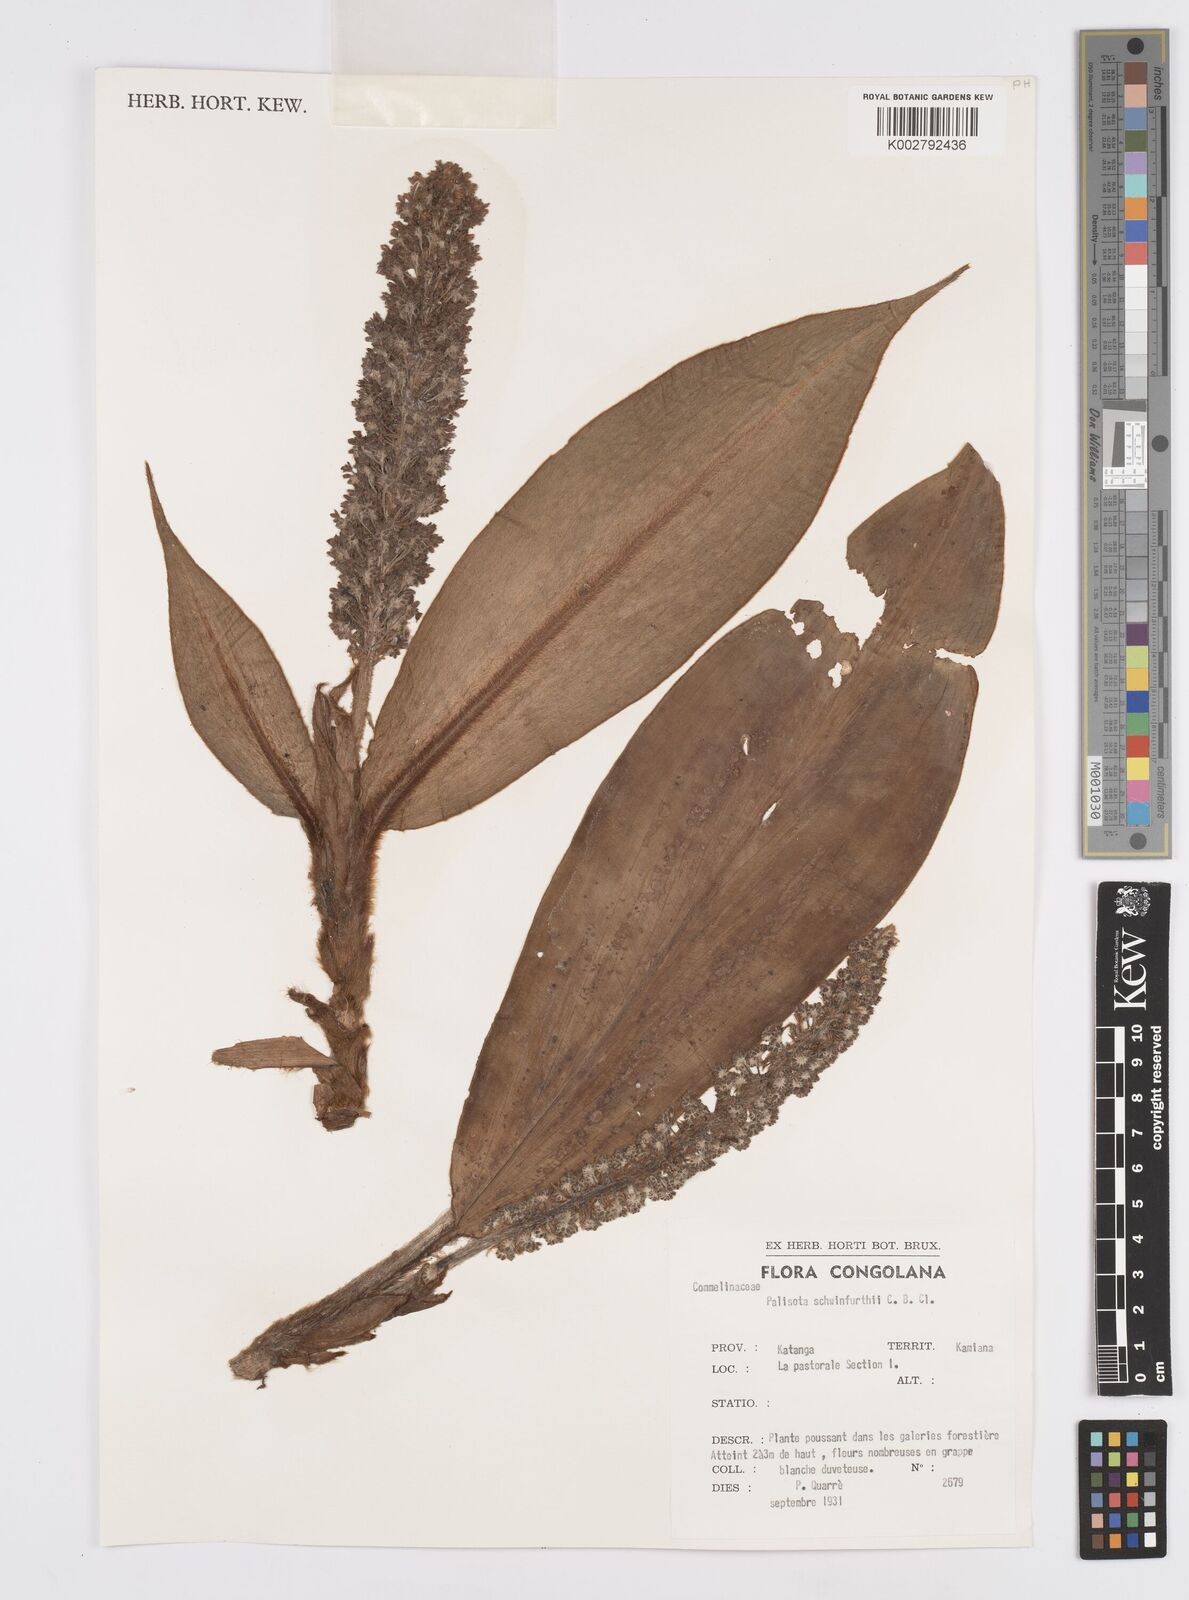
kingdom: Plantae
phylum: Tracheophyta
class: Liliopsida
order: Commelinales
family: Commelinaceae
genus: Palisota
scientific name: Palisota schweinfurthii
